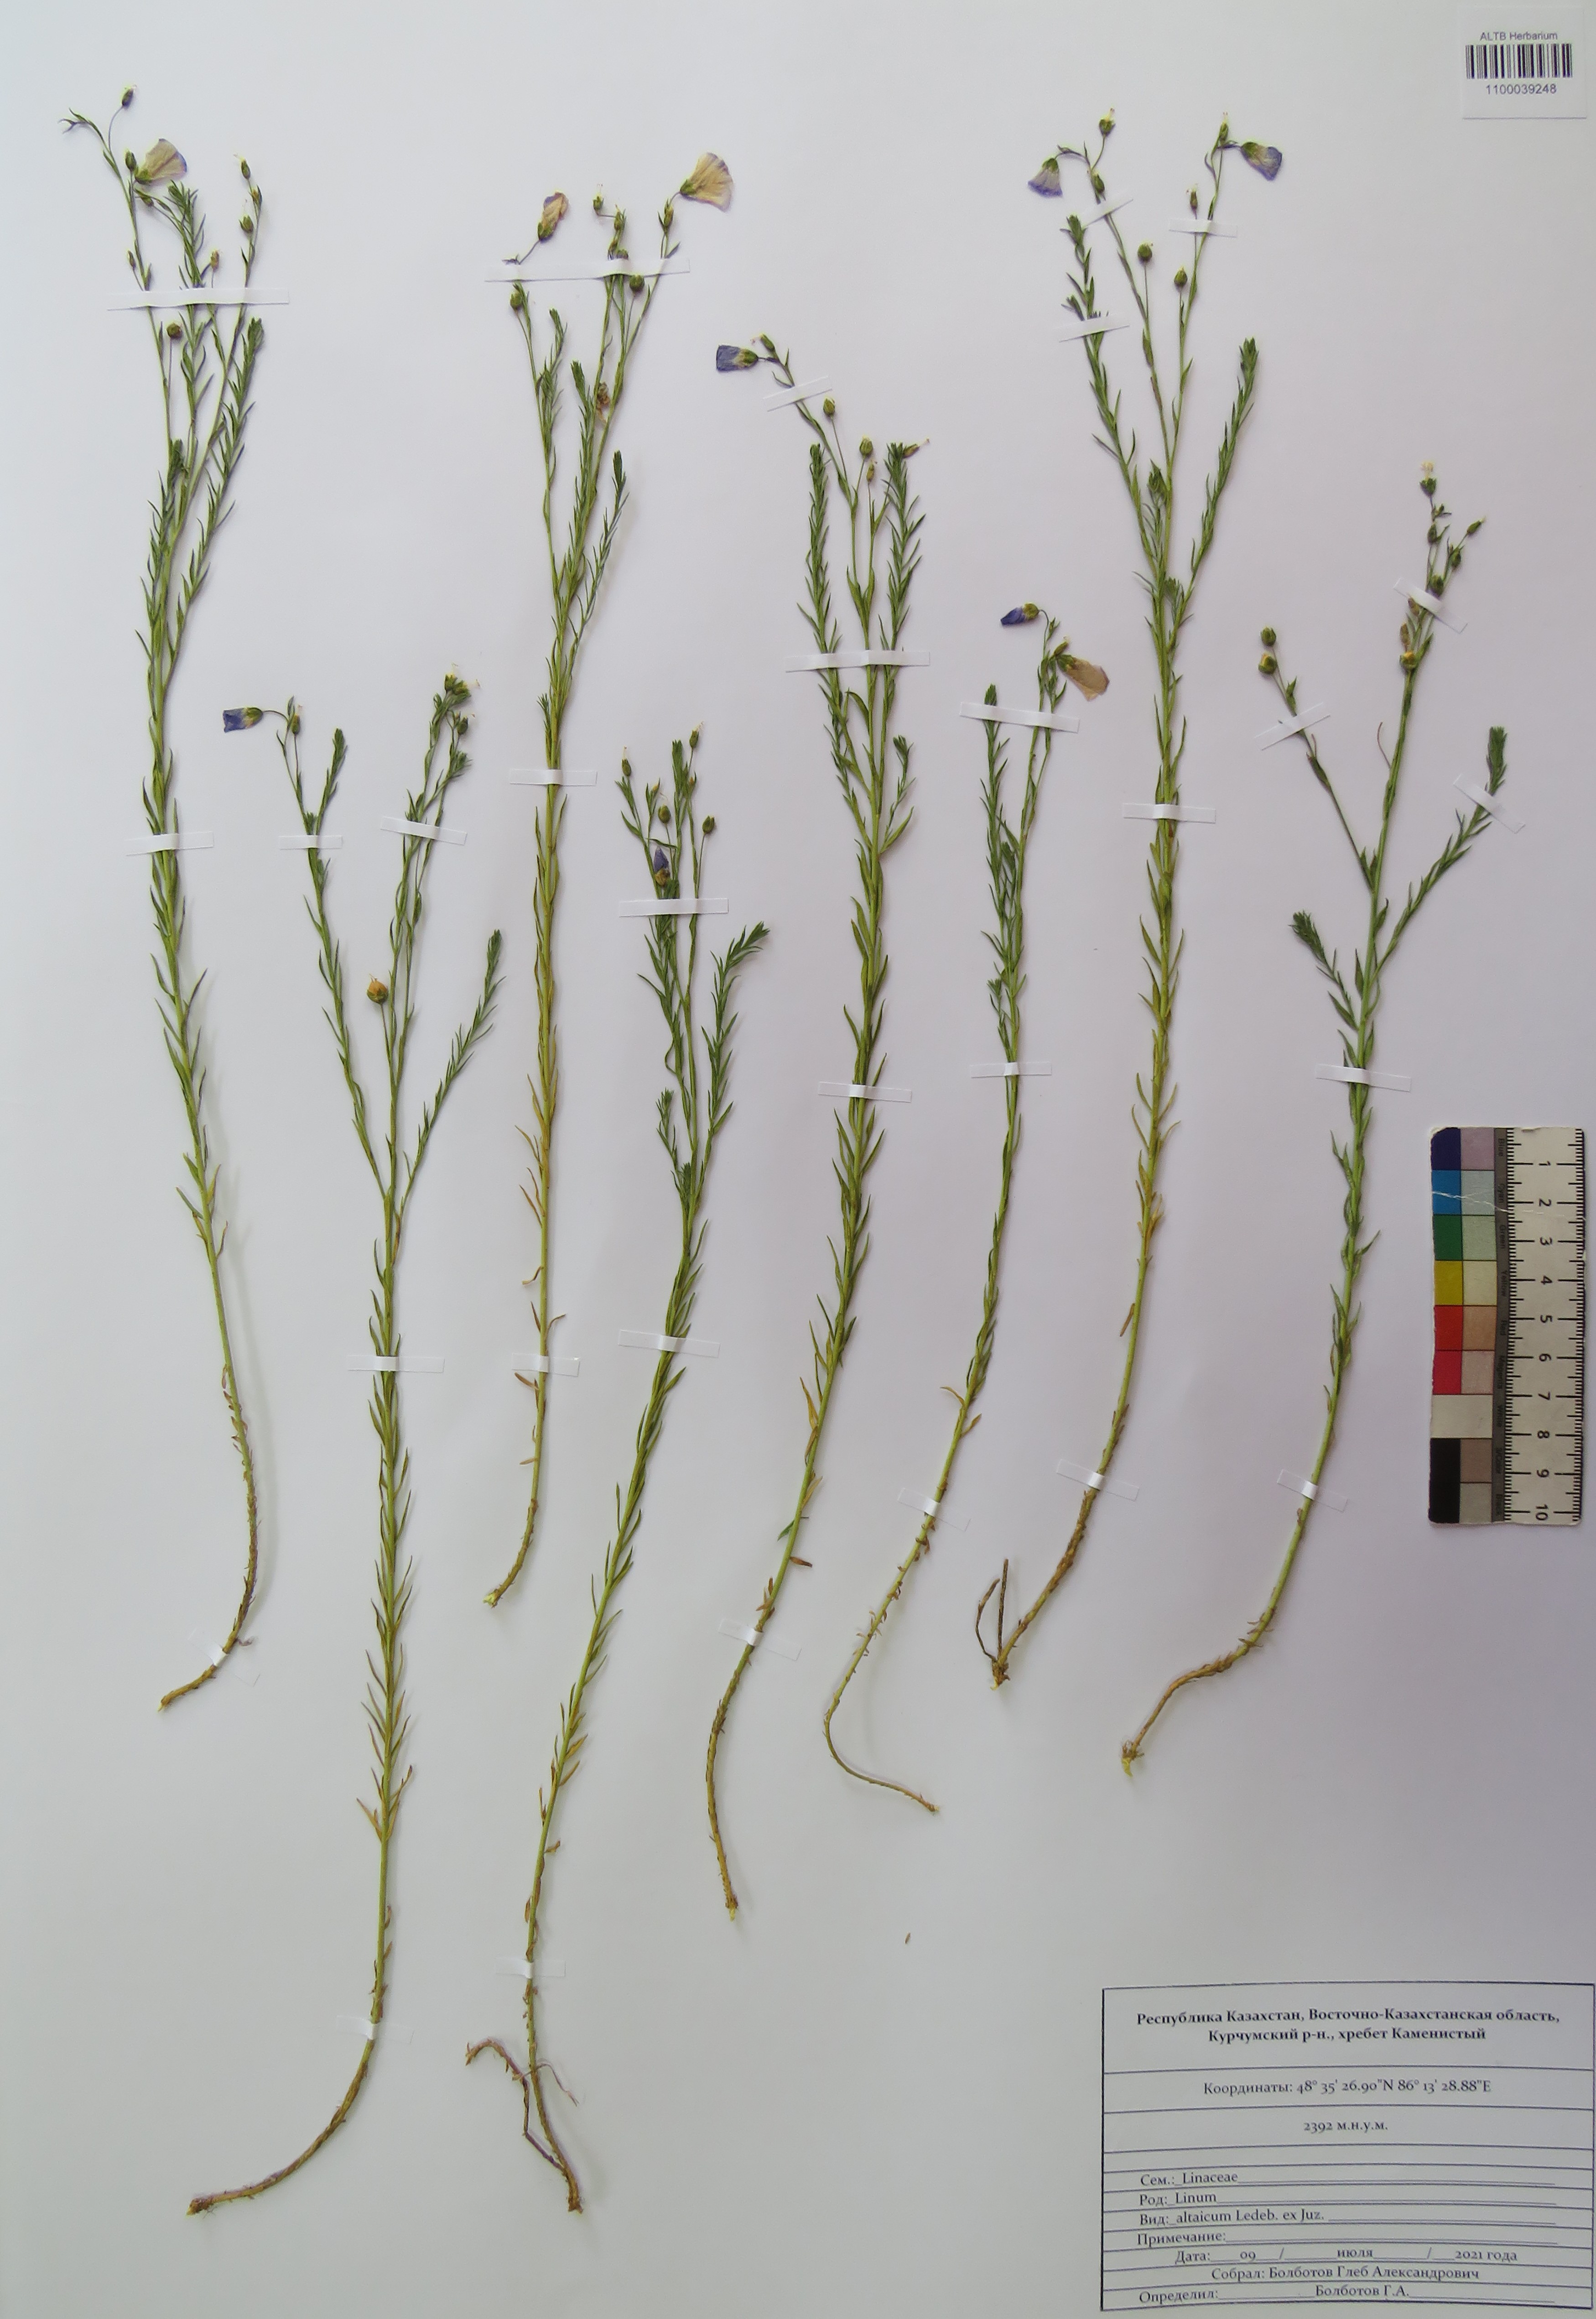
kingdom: Plantae
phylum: Tracheophyta
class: Magnoliopsida
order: Malpighiales
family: Linaceae
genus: Linum
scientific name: Linum altaicum
